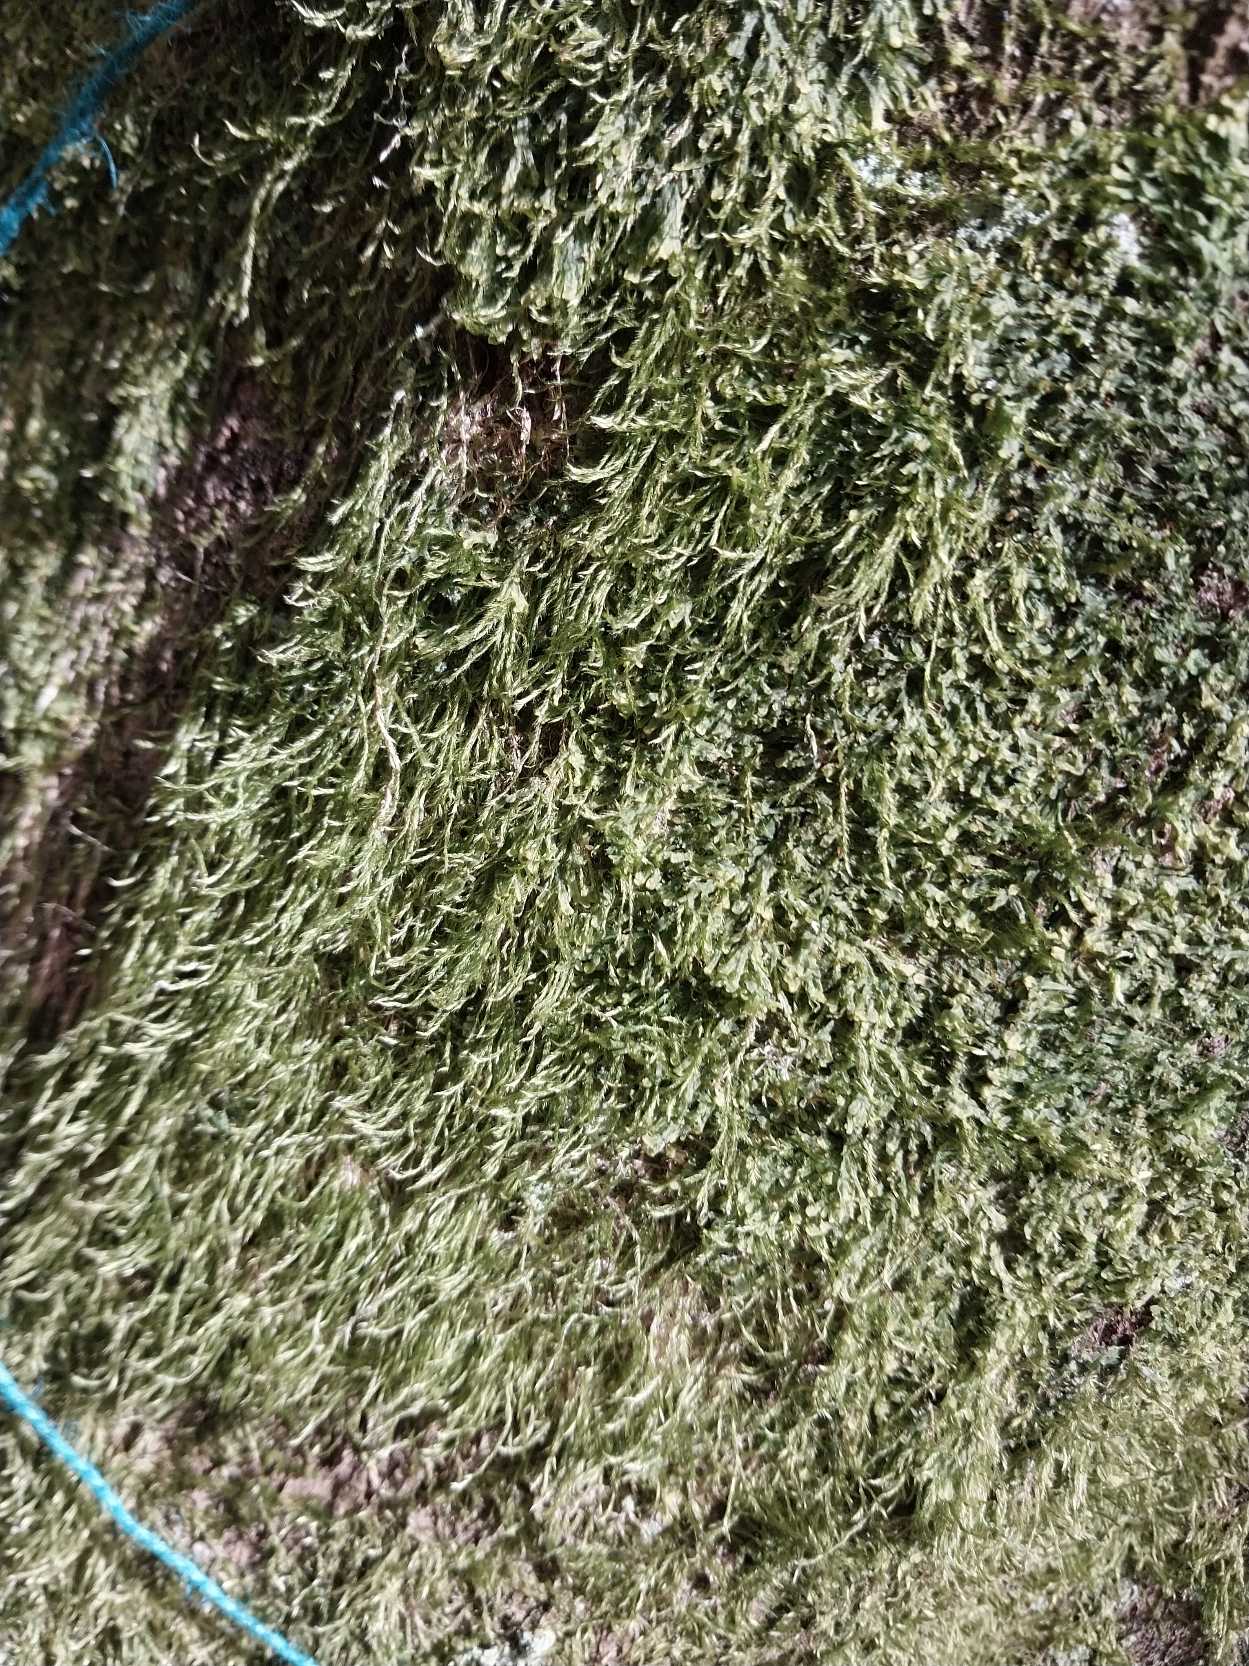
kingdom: Plantae
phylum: Bryophyta
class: Bryopsida
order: Hypnales
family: Hypnaceae
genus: Hypnum
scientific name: Hypnum
